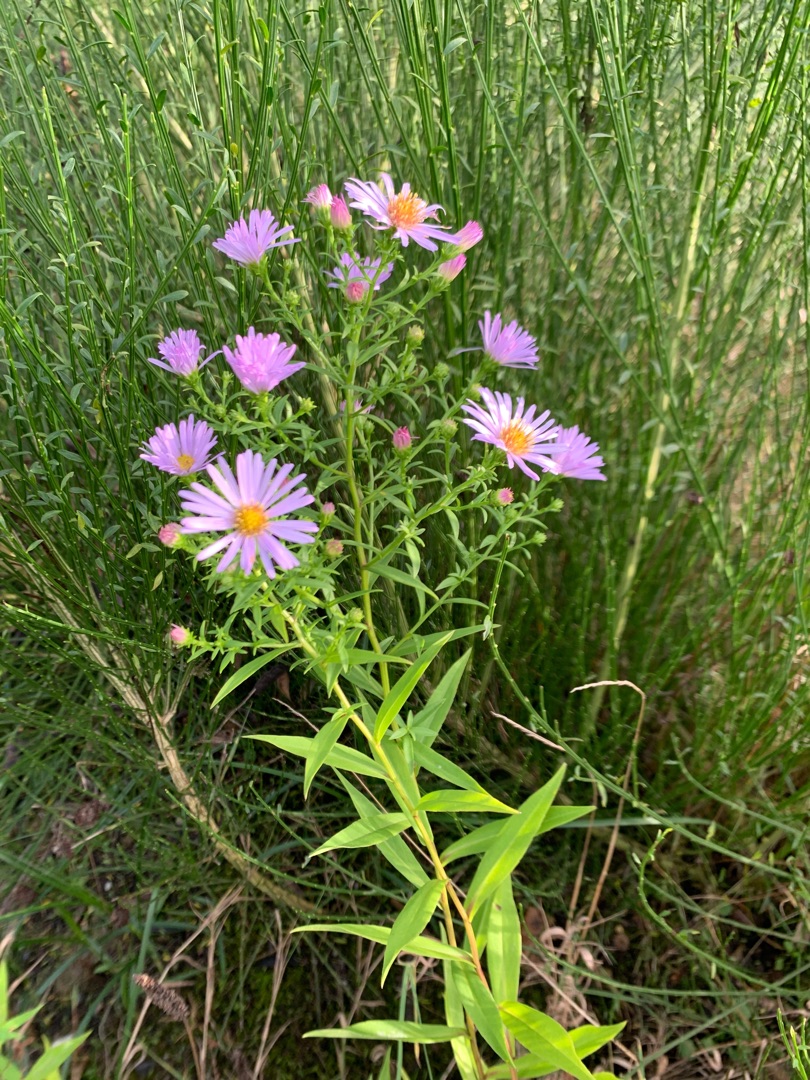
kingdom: Plantae
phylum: Tracheophyta
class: Magnoliopsida
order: Asterales
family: Asteraceae
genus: Symphyotrichum
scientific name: Symphyotrichum versicolor
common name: Broget asters
